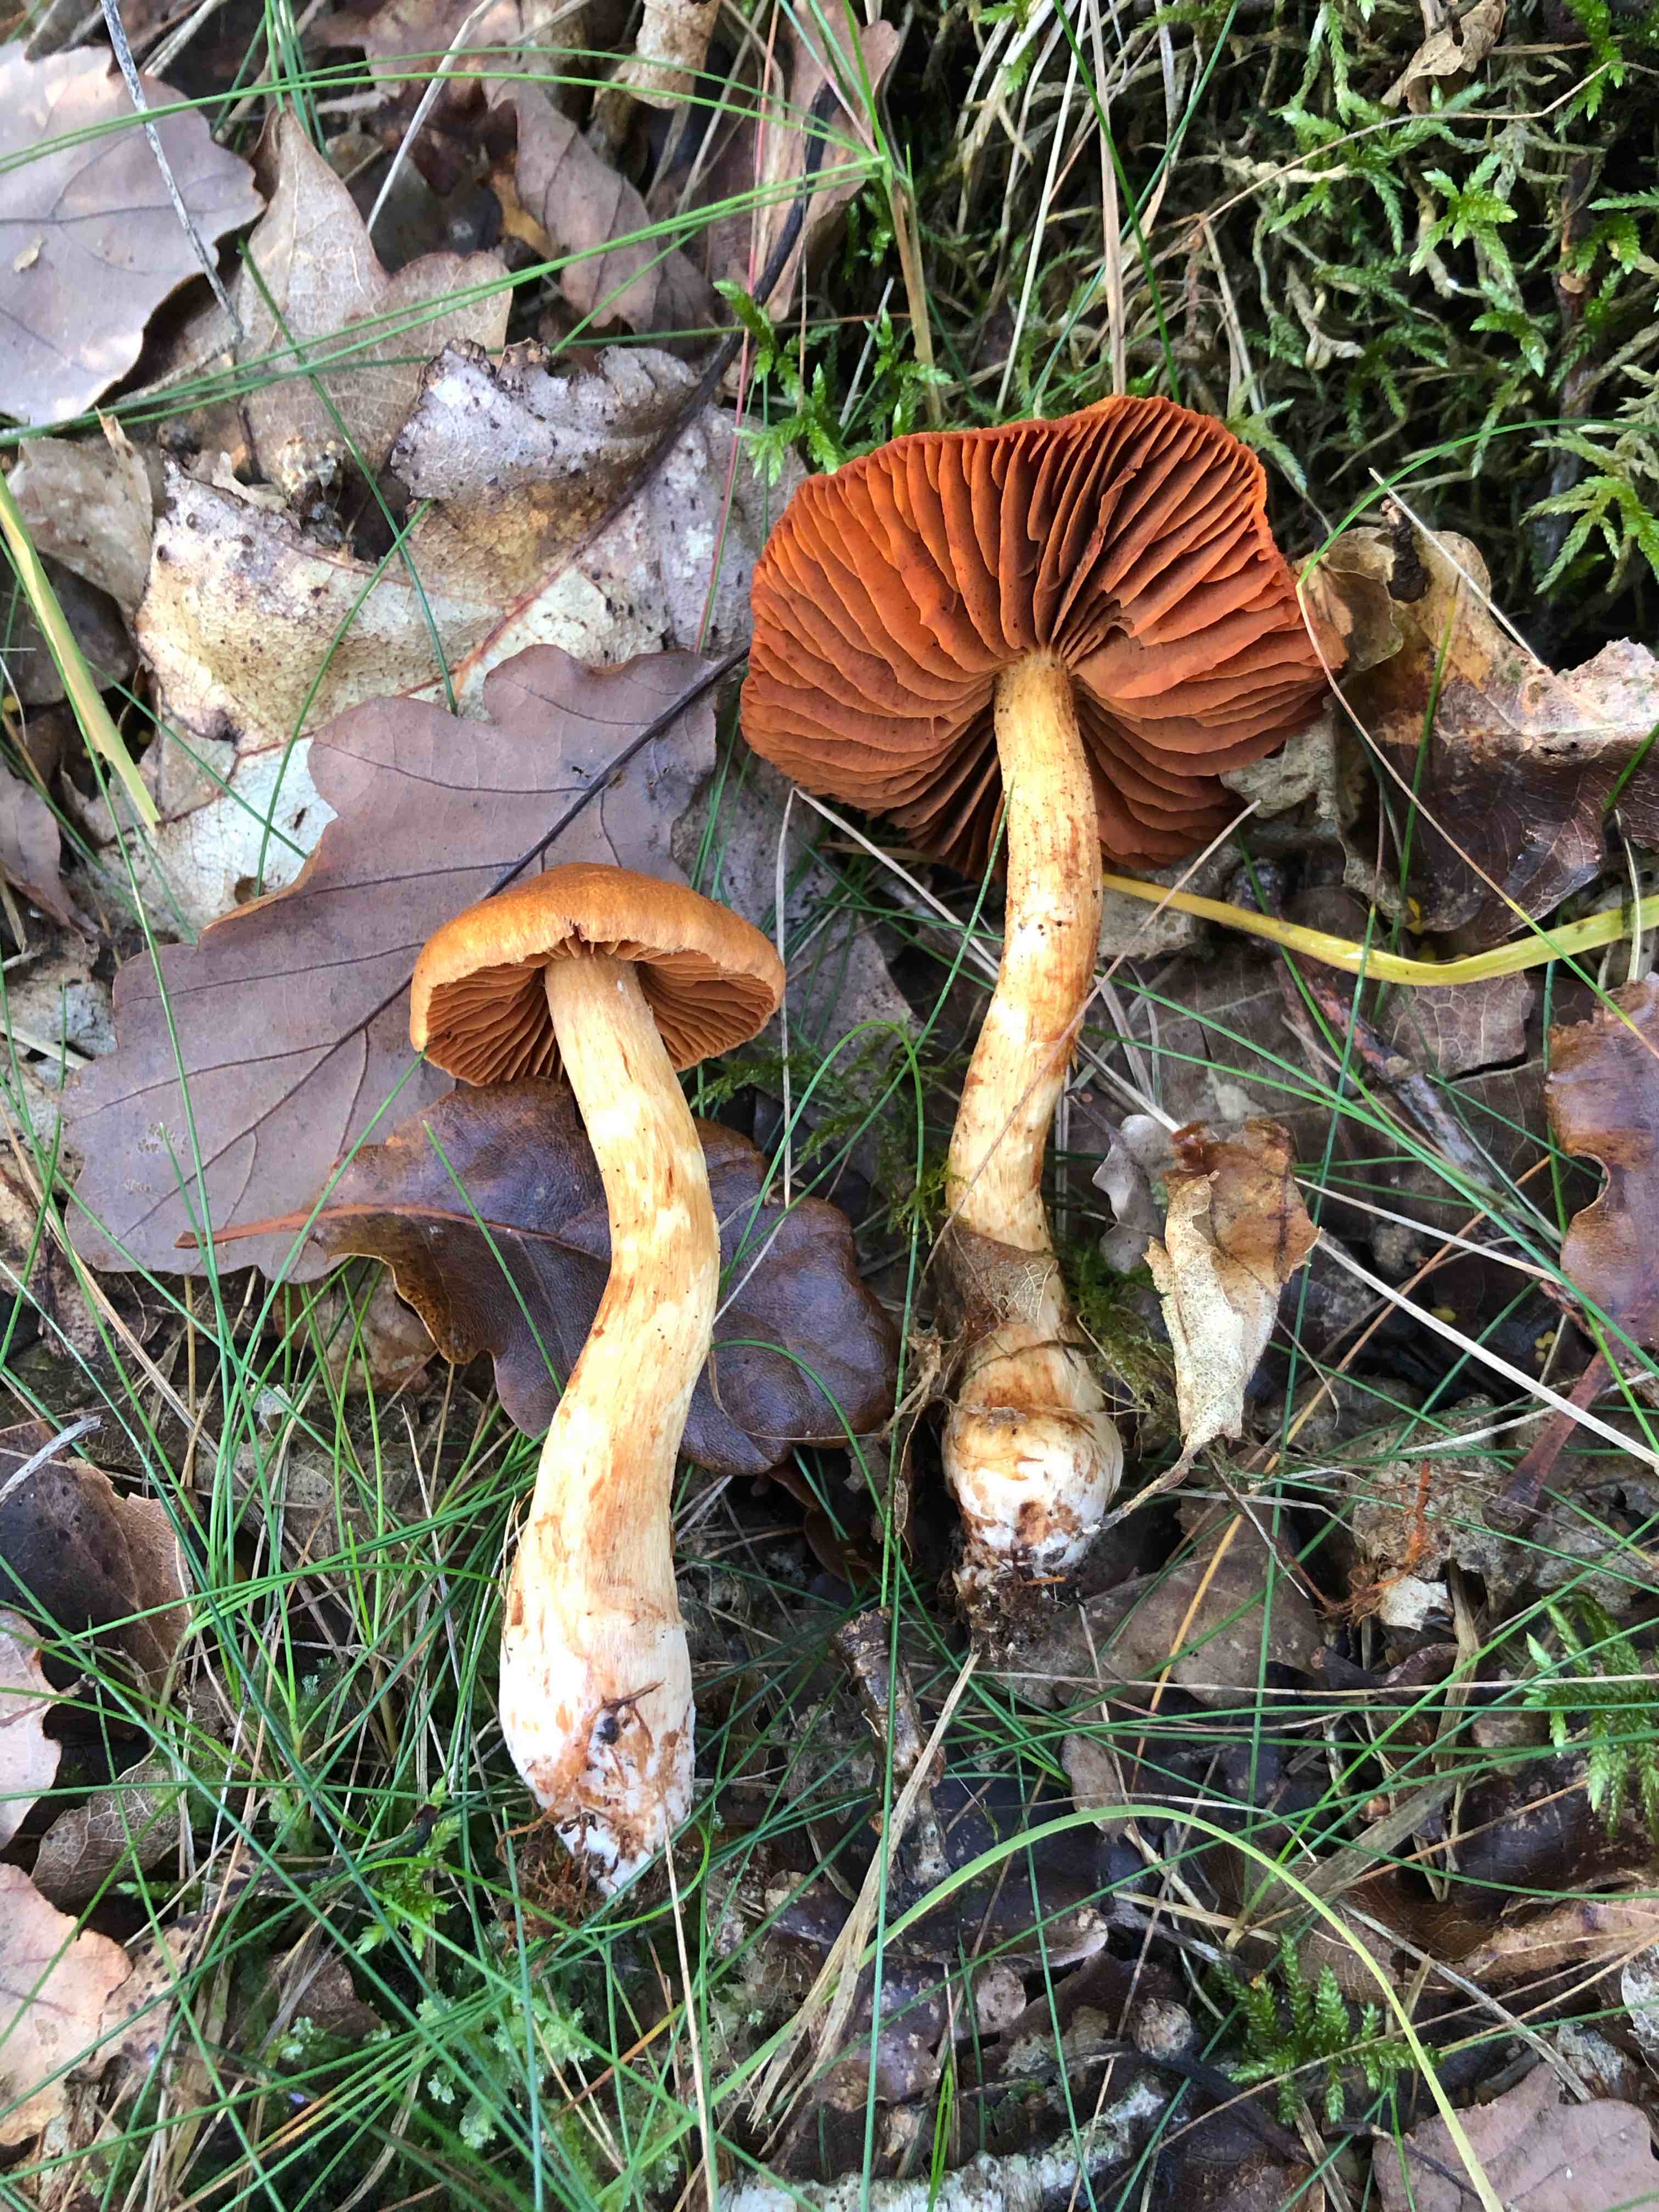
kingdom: Fungi
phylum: Basidiomycota
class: Agaricomycetes
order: Agaricales
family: Cortinariaceae
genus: Cortinarius
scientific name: Cortinarius rubellus
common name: puklet gift-slørhat
